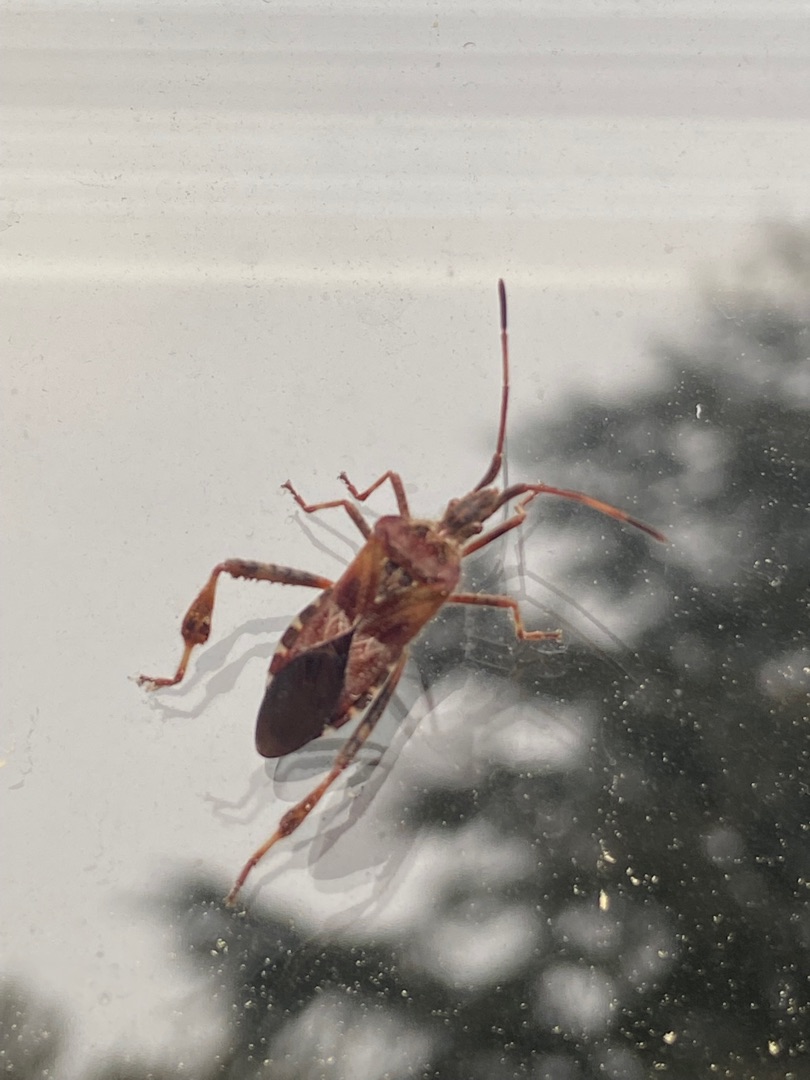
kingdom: Animalia
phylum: Arthropoda
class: Insecta
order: Hemiptera
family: Coreidae
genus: Leptoglossus
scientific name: Leptoglossus occidentalis
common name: Amerikansk fyrretæge
